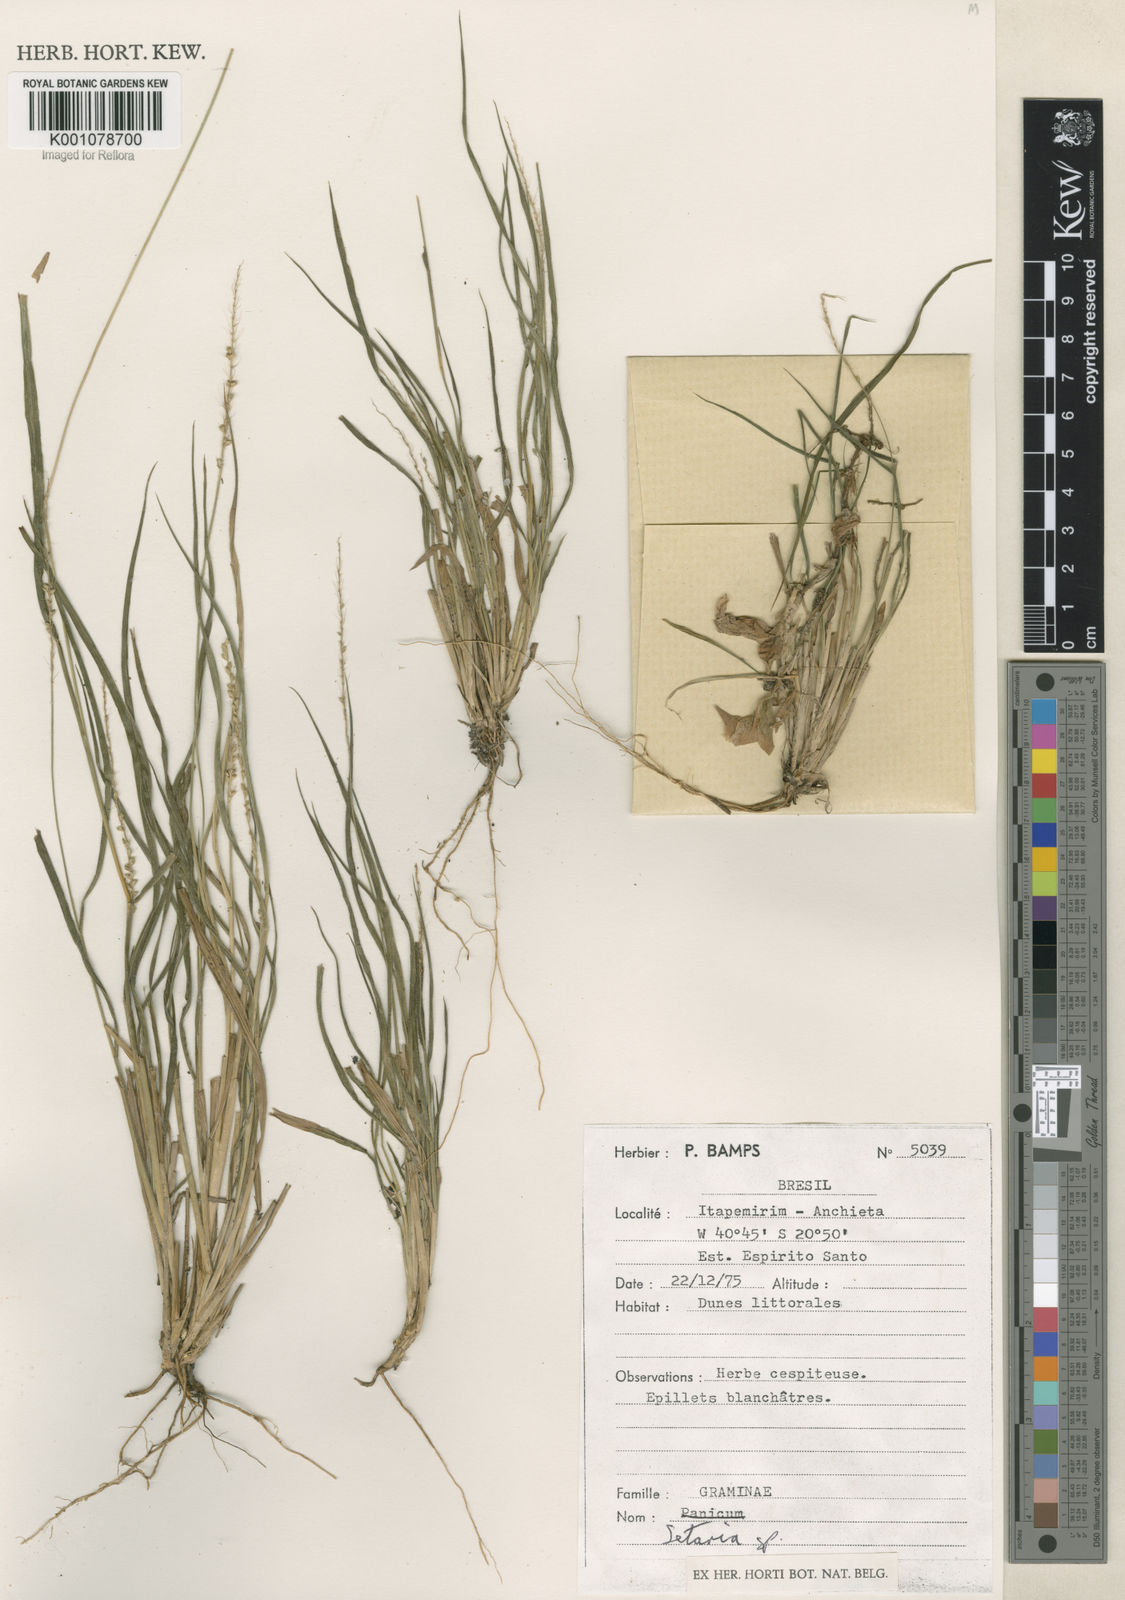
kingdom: Plantae
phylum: Tracheophyta
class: Liliopsida
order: Poales
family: Poaceae
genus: Setaria
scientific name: Setaria
